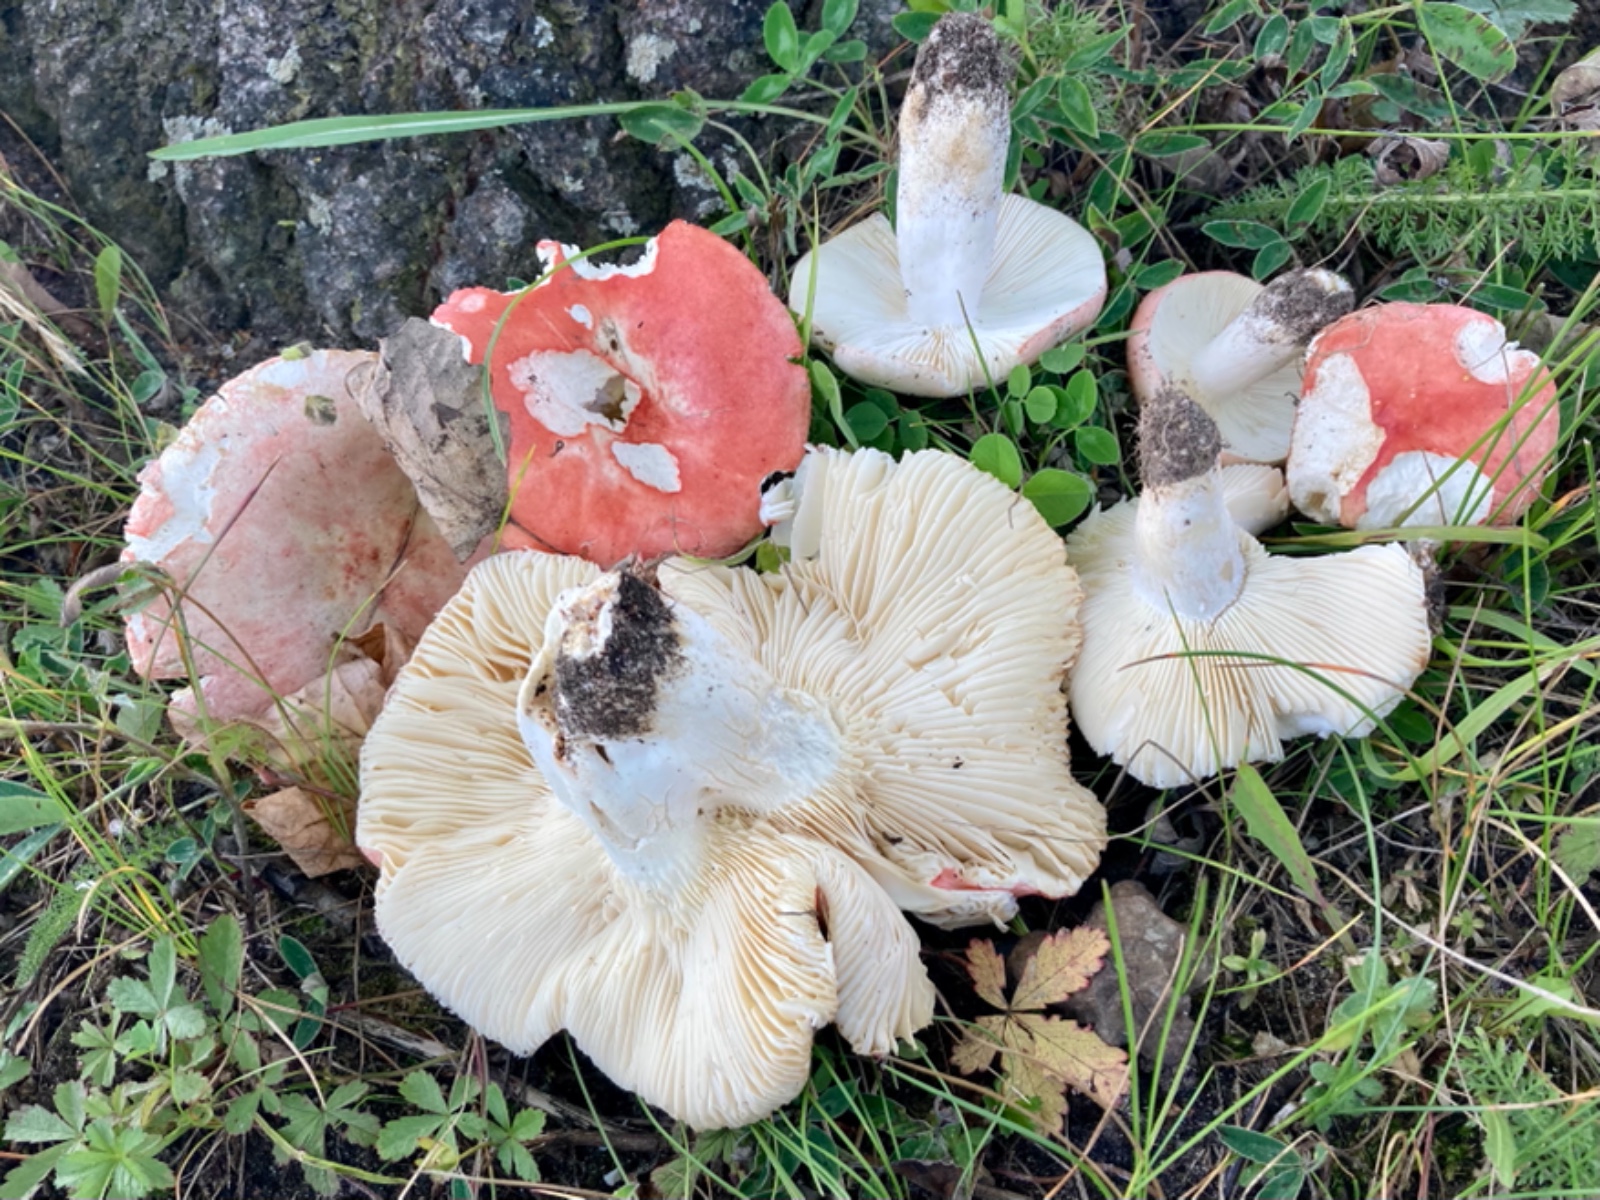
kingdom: Fungi
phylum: Basidiomycota
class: Agaricomycetes
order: Russulales
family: Russulaceae
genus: Russula
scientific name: Russula
